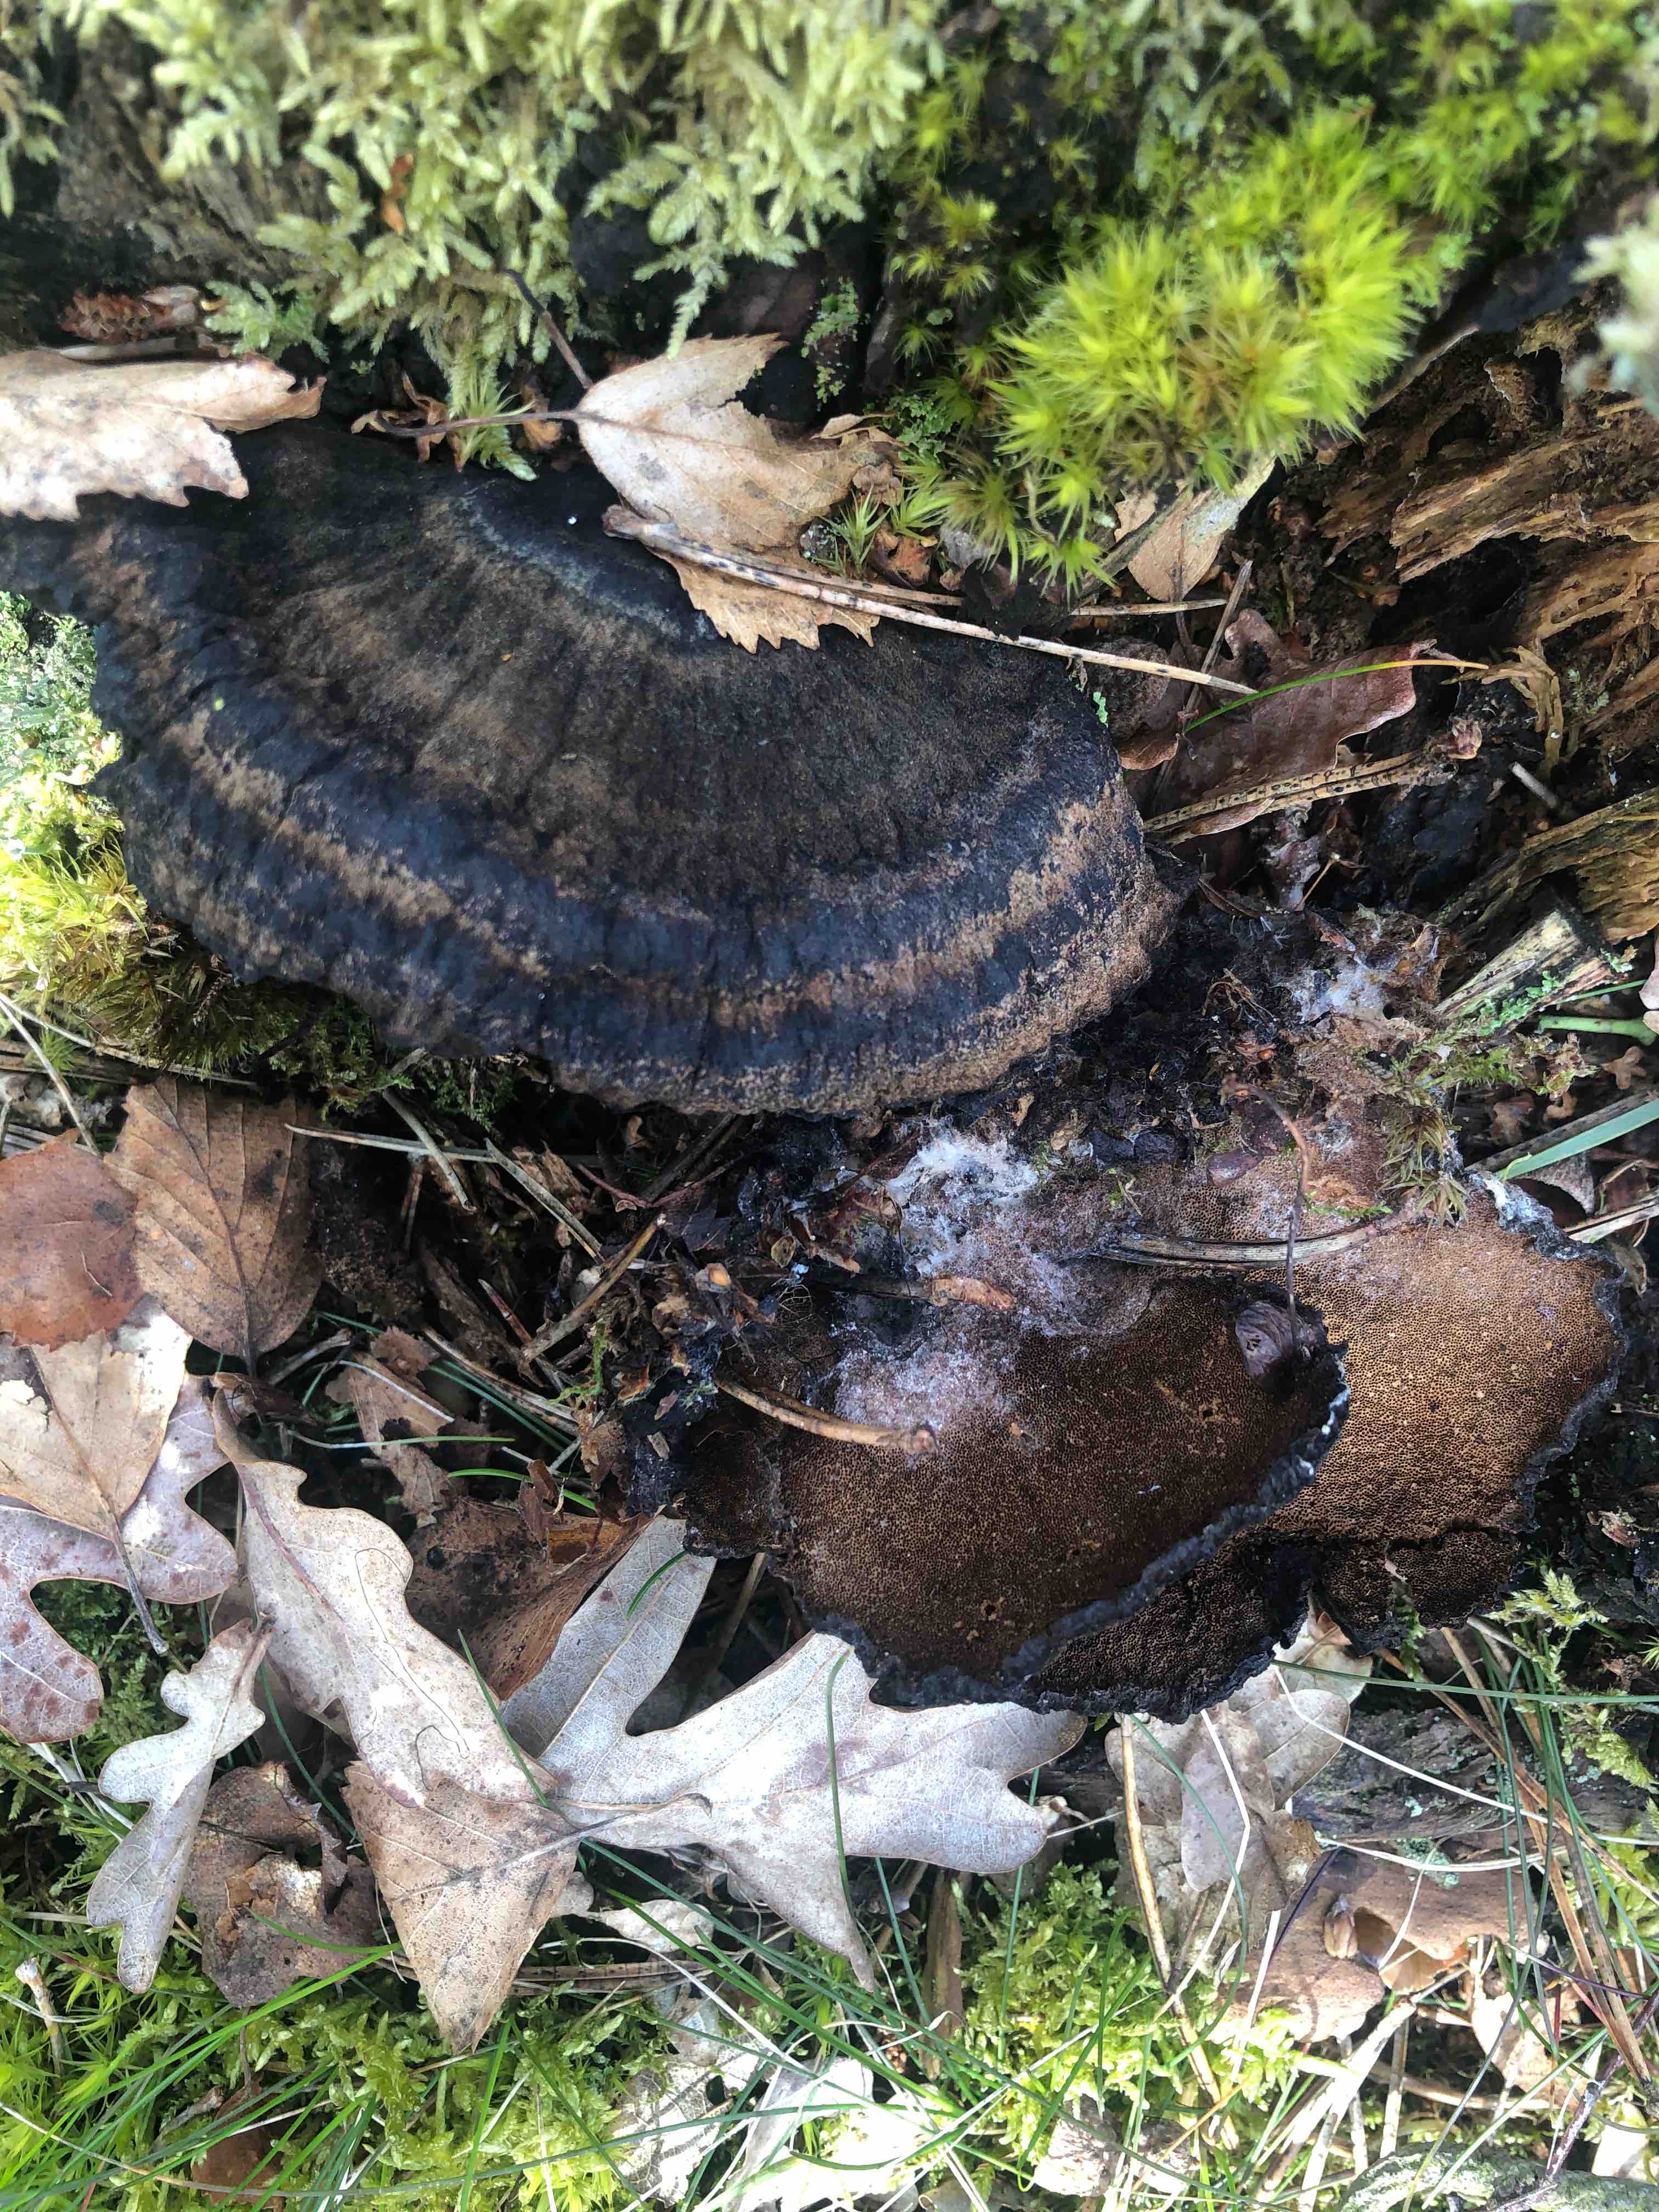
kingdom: Fungi
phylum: Basidiomycota
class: Agaricomycetes
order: Polyporales
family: Ischnodermataceae
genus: Ischnoderma
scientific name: Ischnoderma benzoinum
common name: gran-tjæreporesvamp
